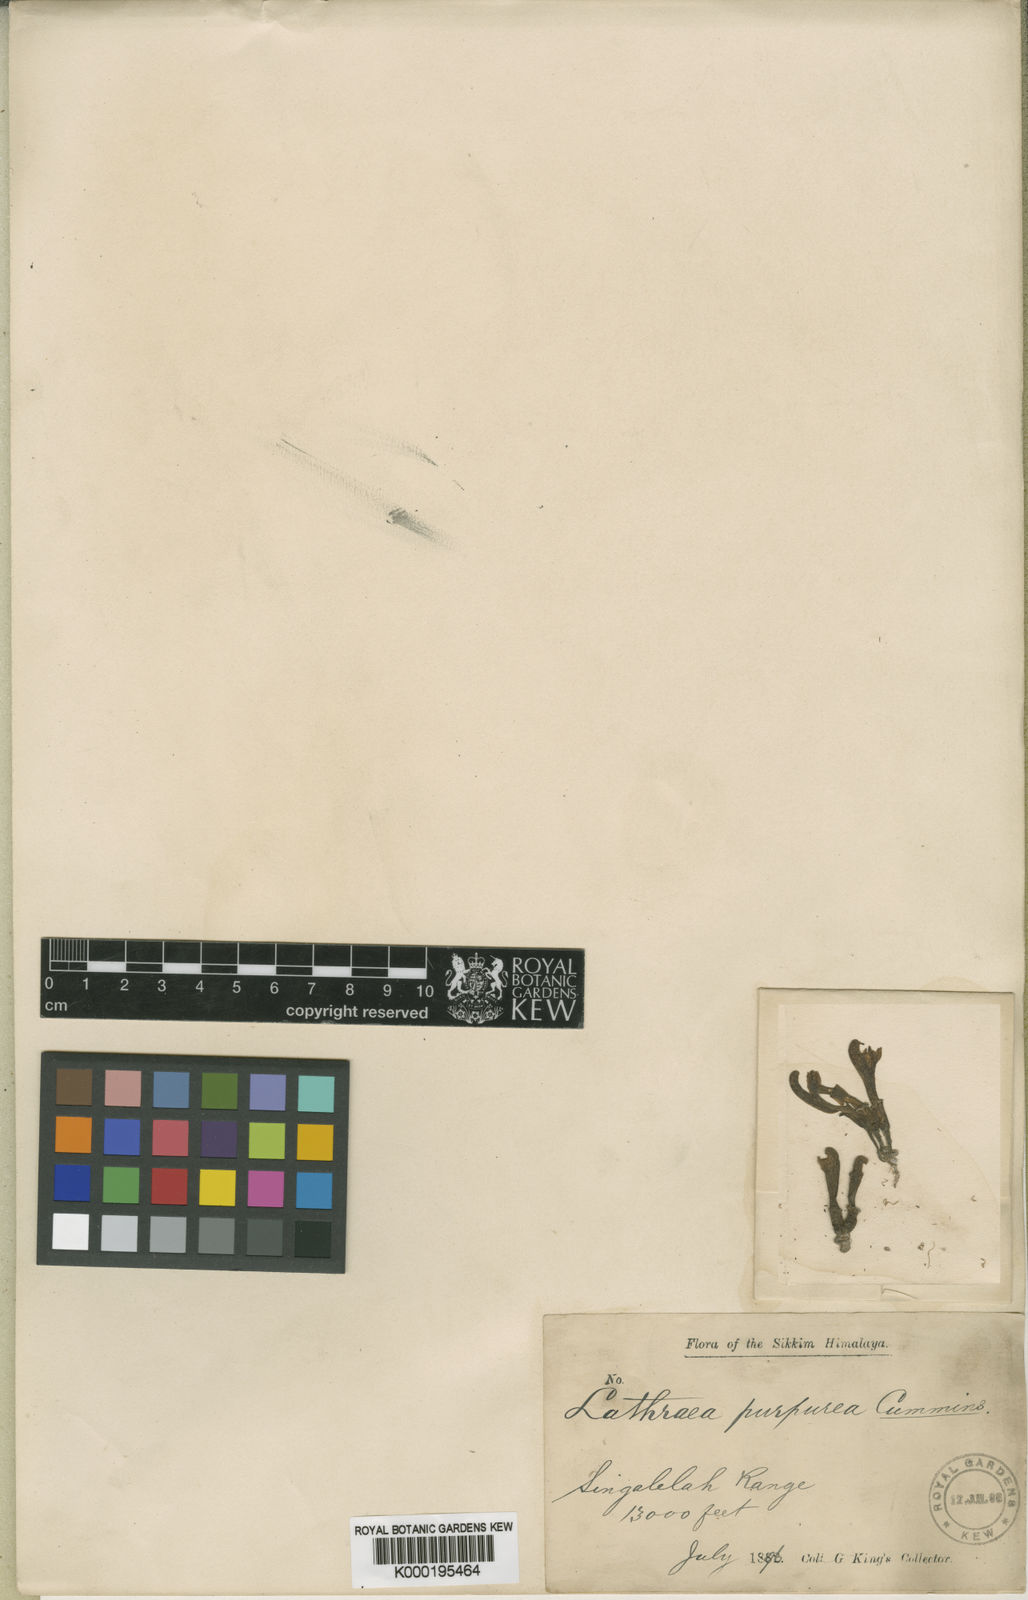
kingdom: Plantae
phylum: Tracheophyta
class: Magnoliopsida
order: Lamiales
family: Orobanchaceae
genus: Lathraea
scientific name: Lathraea purpurea
